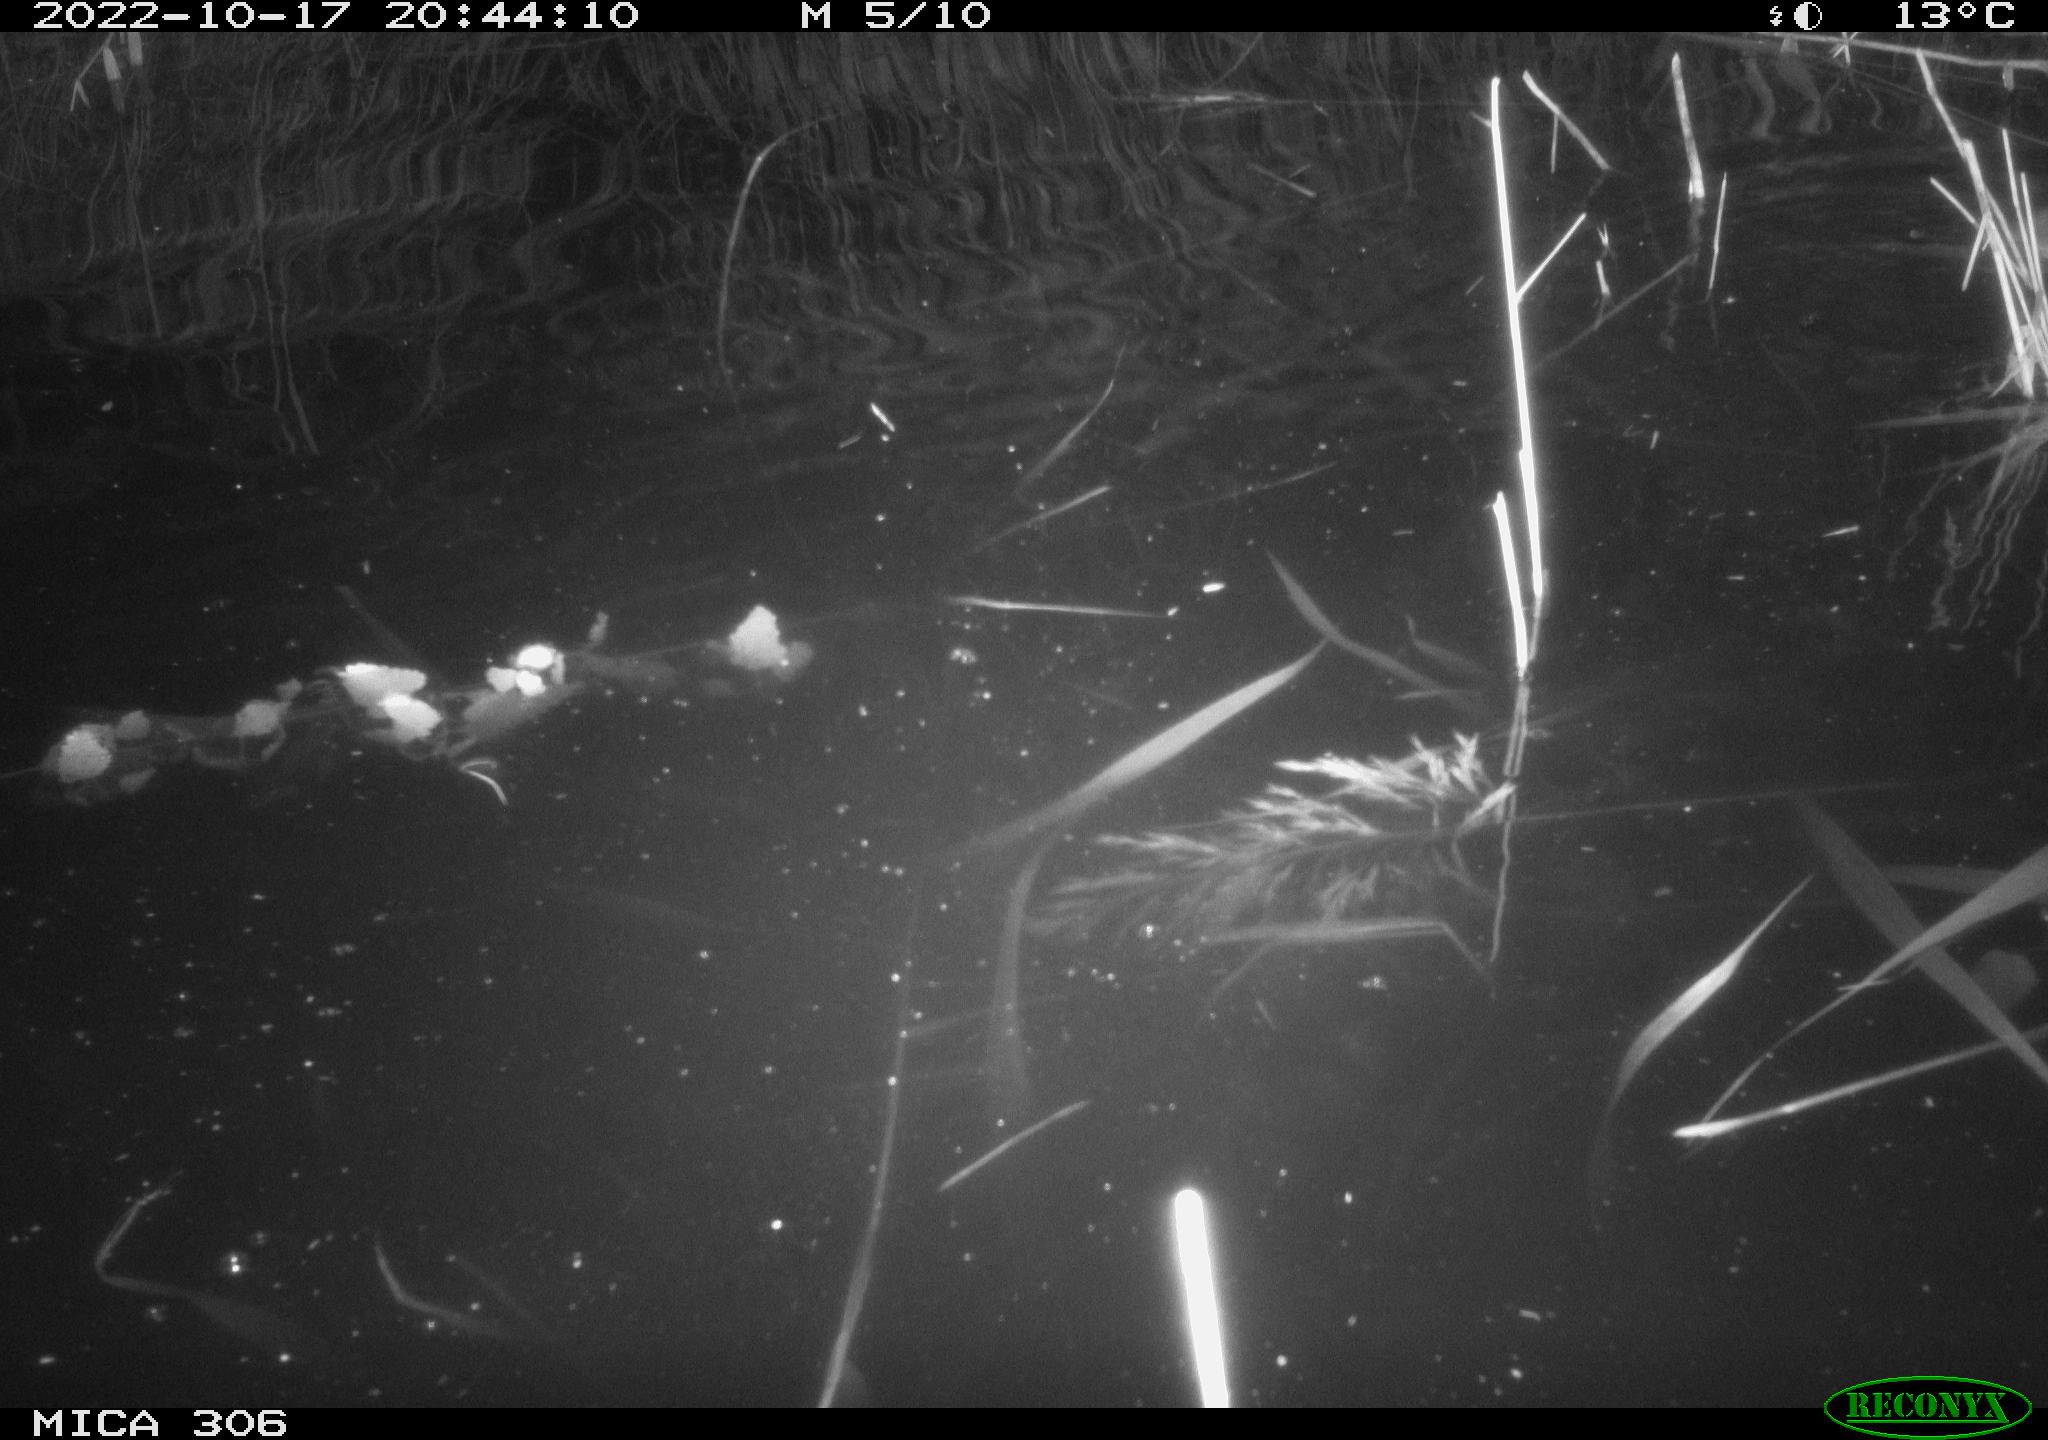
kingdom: Animalia
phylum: Chordata
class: Mammalia
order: Rodentia
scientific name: Rodentia
